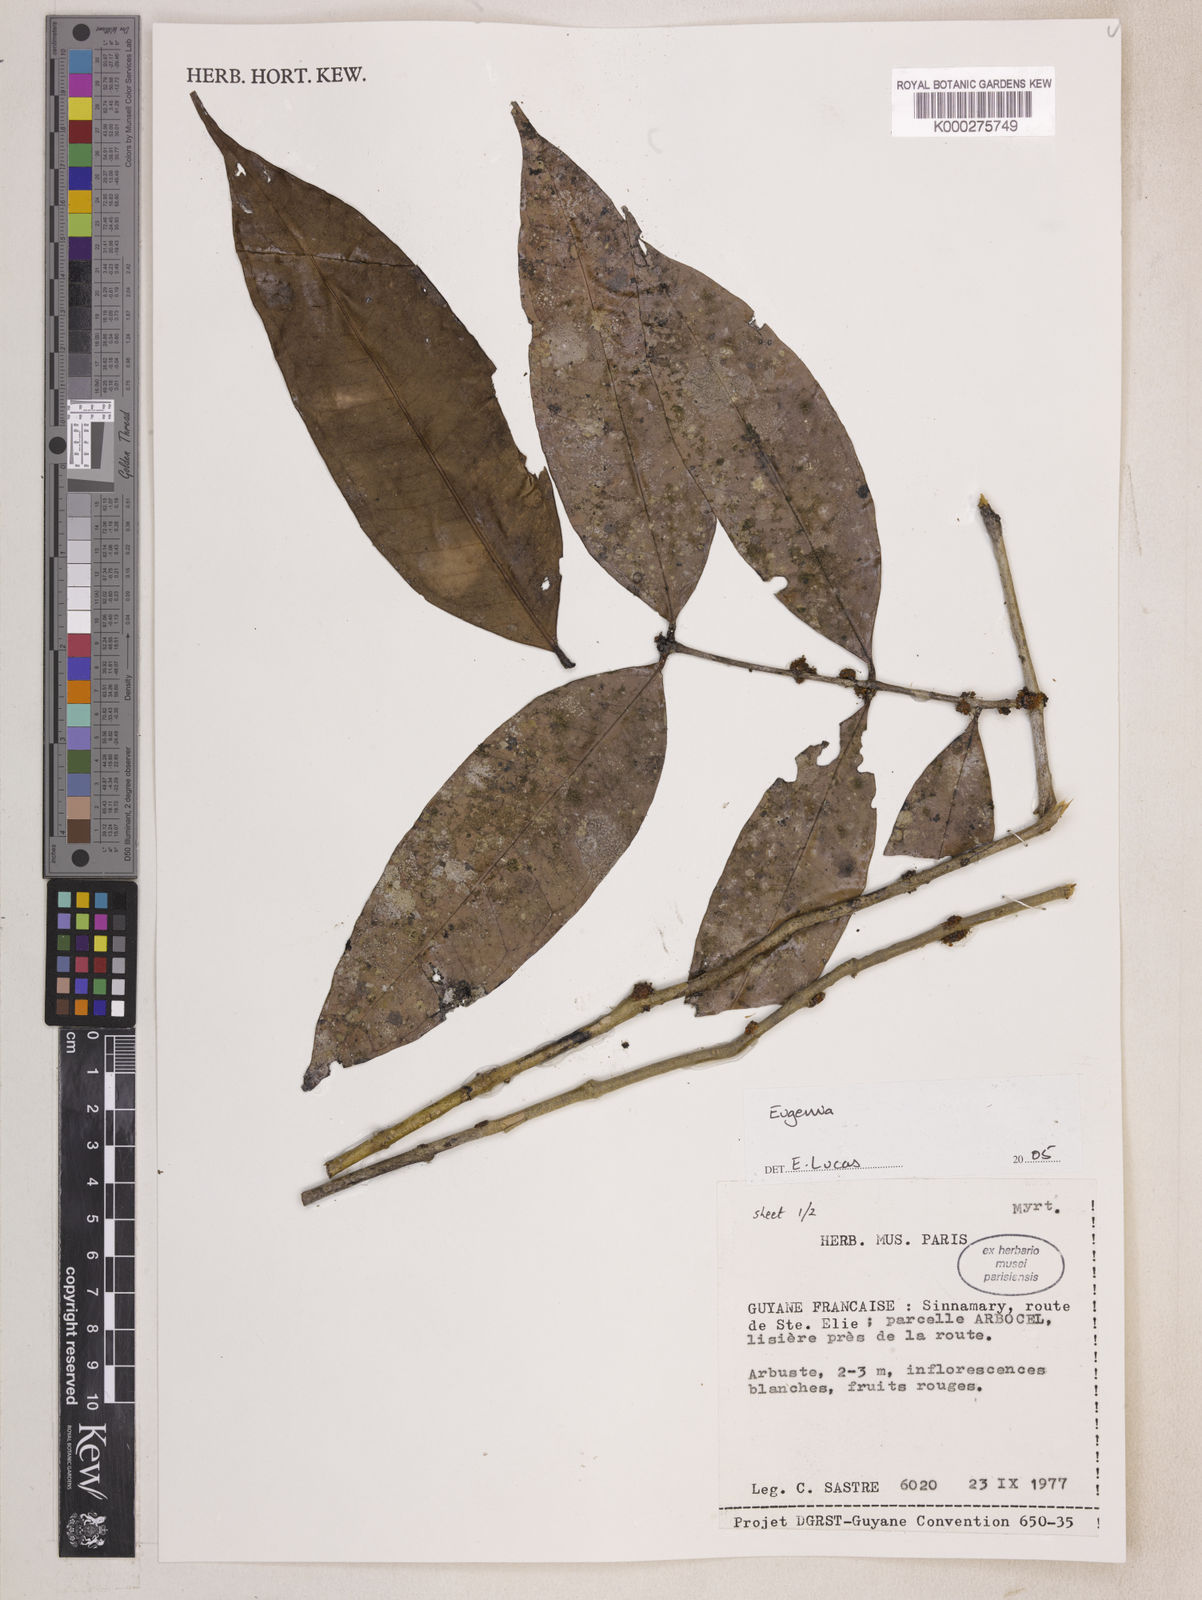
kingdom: Plantae
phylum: Tracheophyta
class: Magnoliopsida
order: Myrtales
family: Myrtaceae
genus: Eugenia
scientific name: Eugenia
